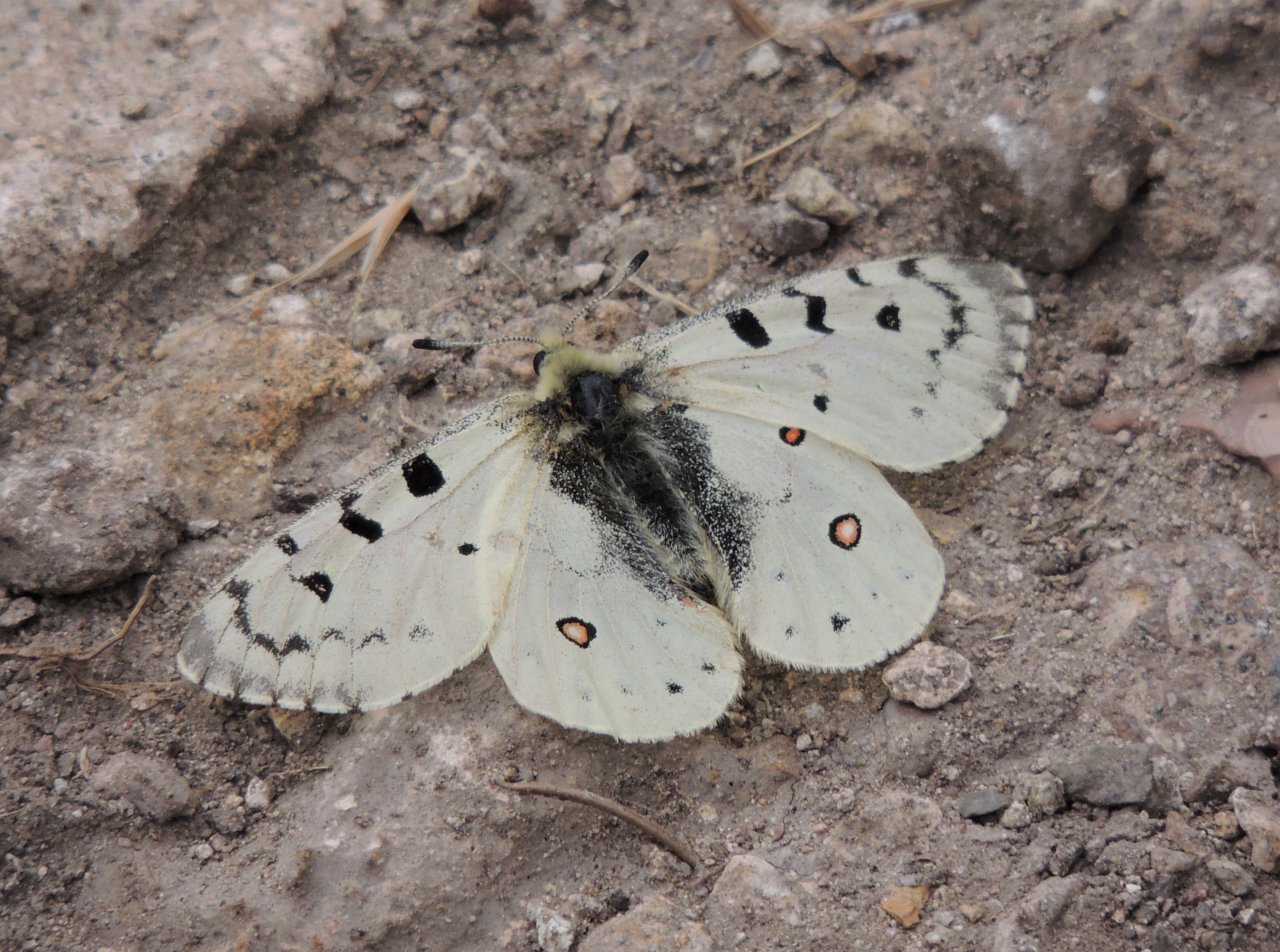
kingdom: Animalia
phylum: Arthropoda
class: Insecta
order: Lepidoptera
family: Papilionidae
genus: Parnassius
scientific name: Parnassius smintheus
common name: Rocky Mountain Parnassian
